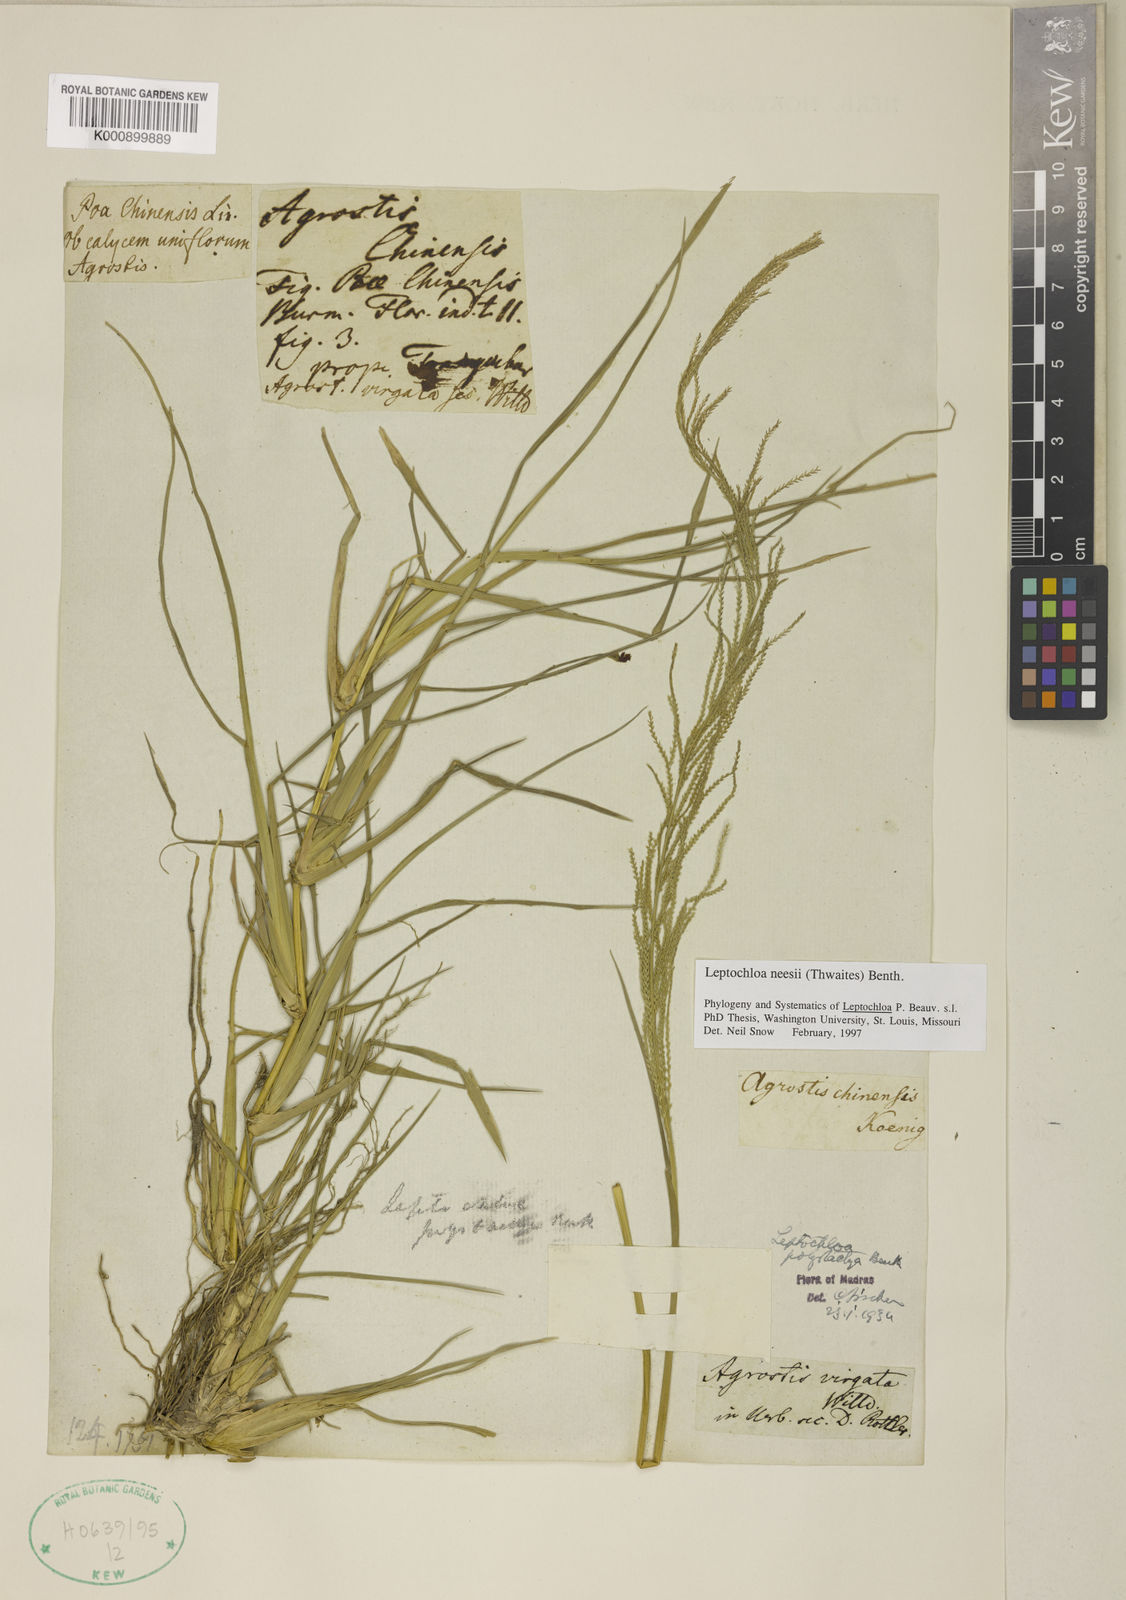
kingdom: Plantae
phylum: Tracheophyta
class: Liliopsida
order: Poales
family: Poaceae
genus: Dinebra
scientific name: Dinebra polystachyos
